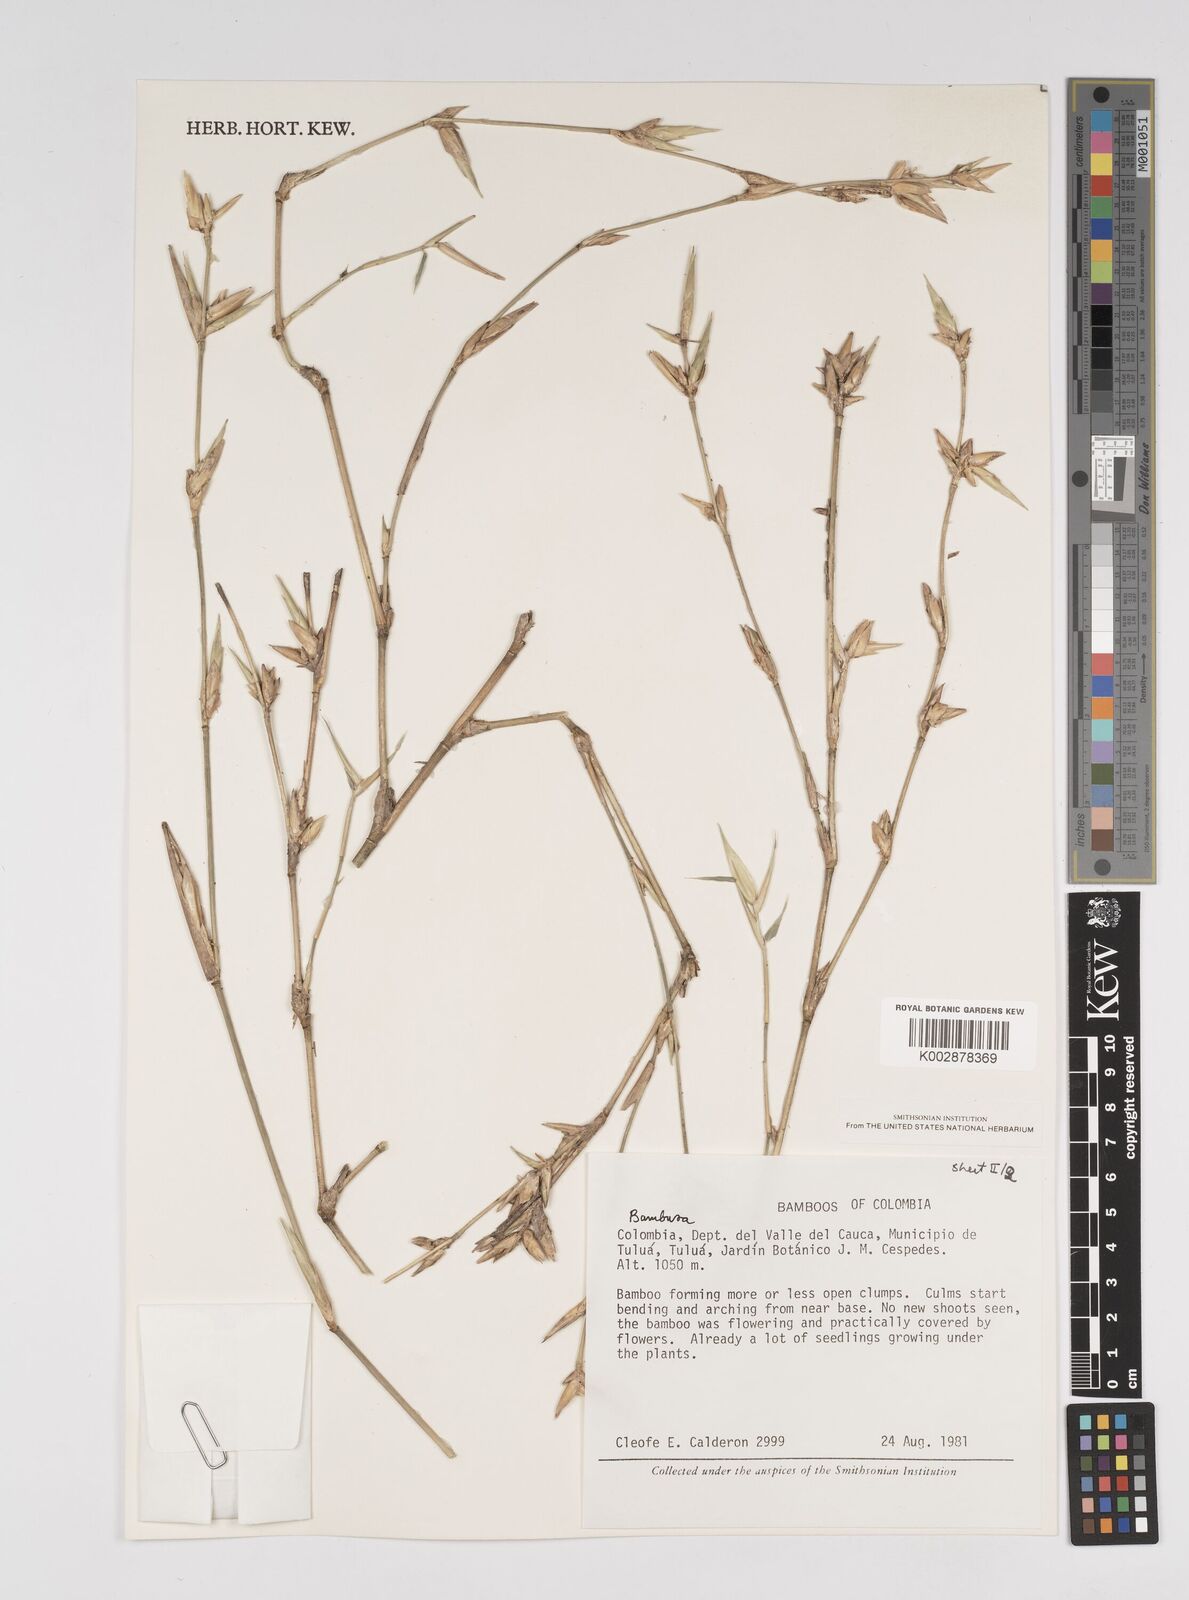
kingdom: Plantae
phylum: Tracheophyta
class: Liliopsida
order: Poales
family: Poaceae
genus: Bambusa
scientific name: Bambusa
